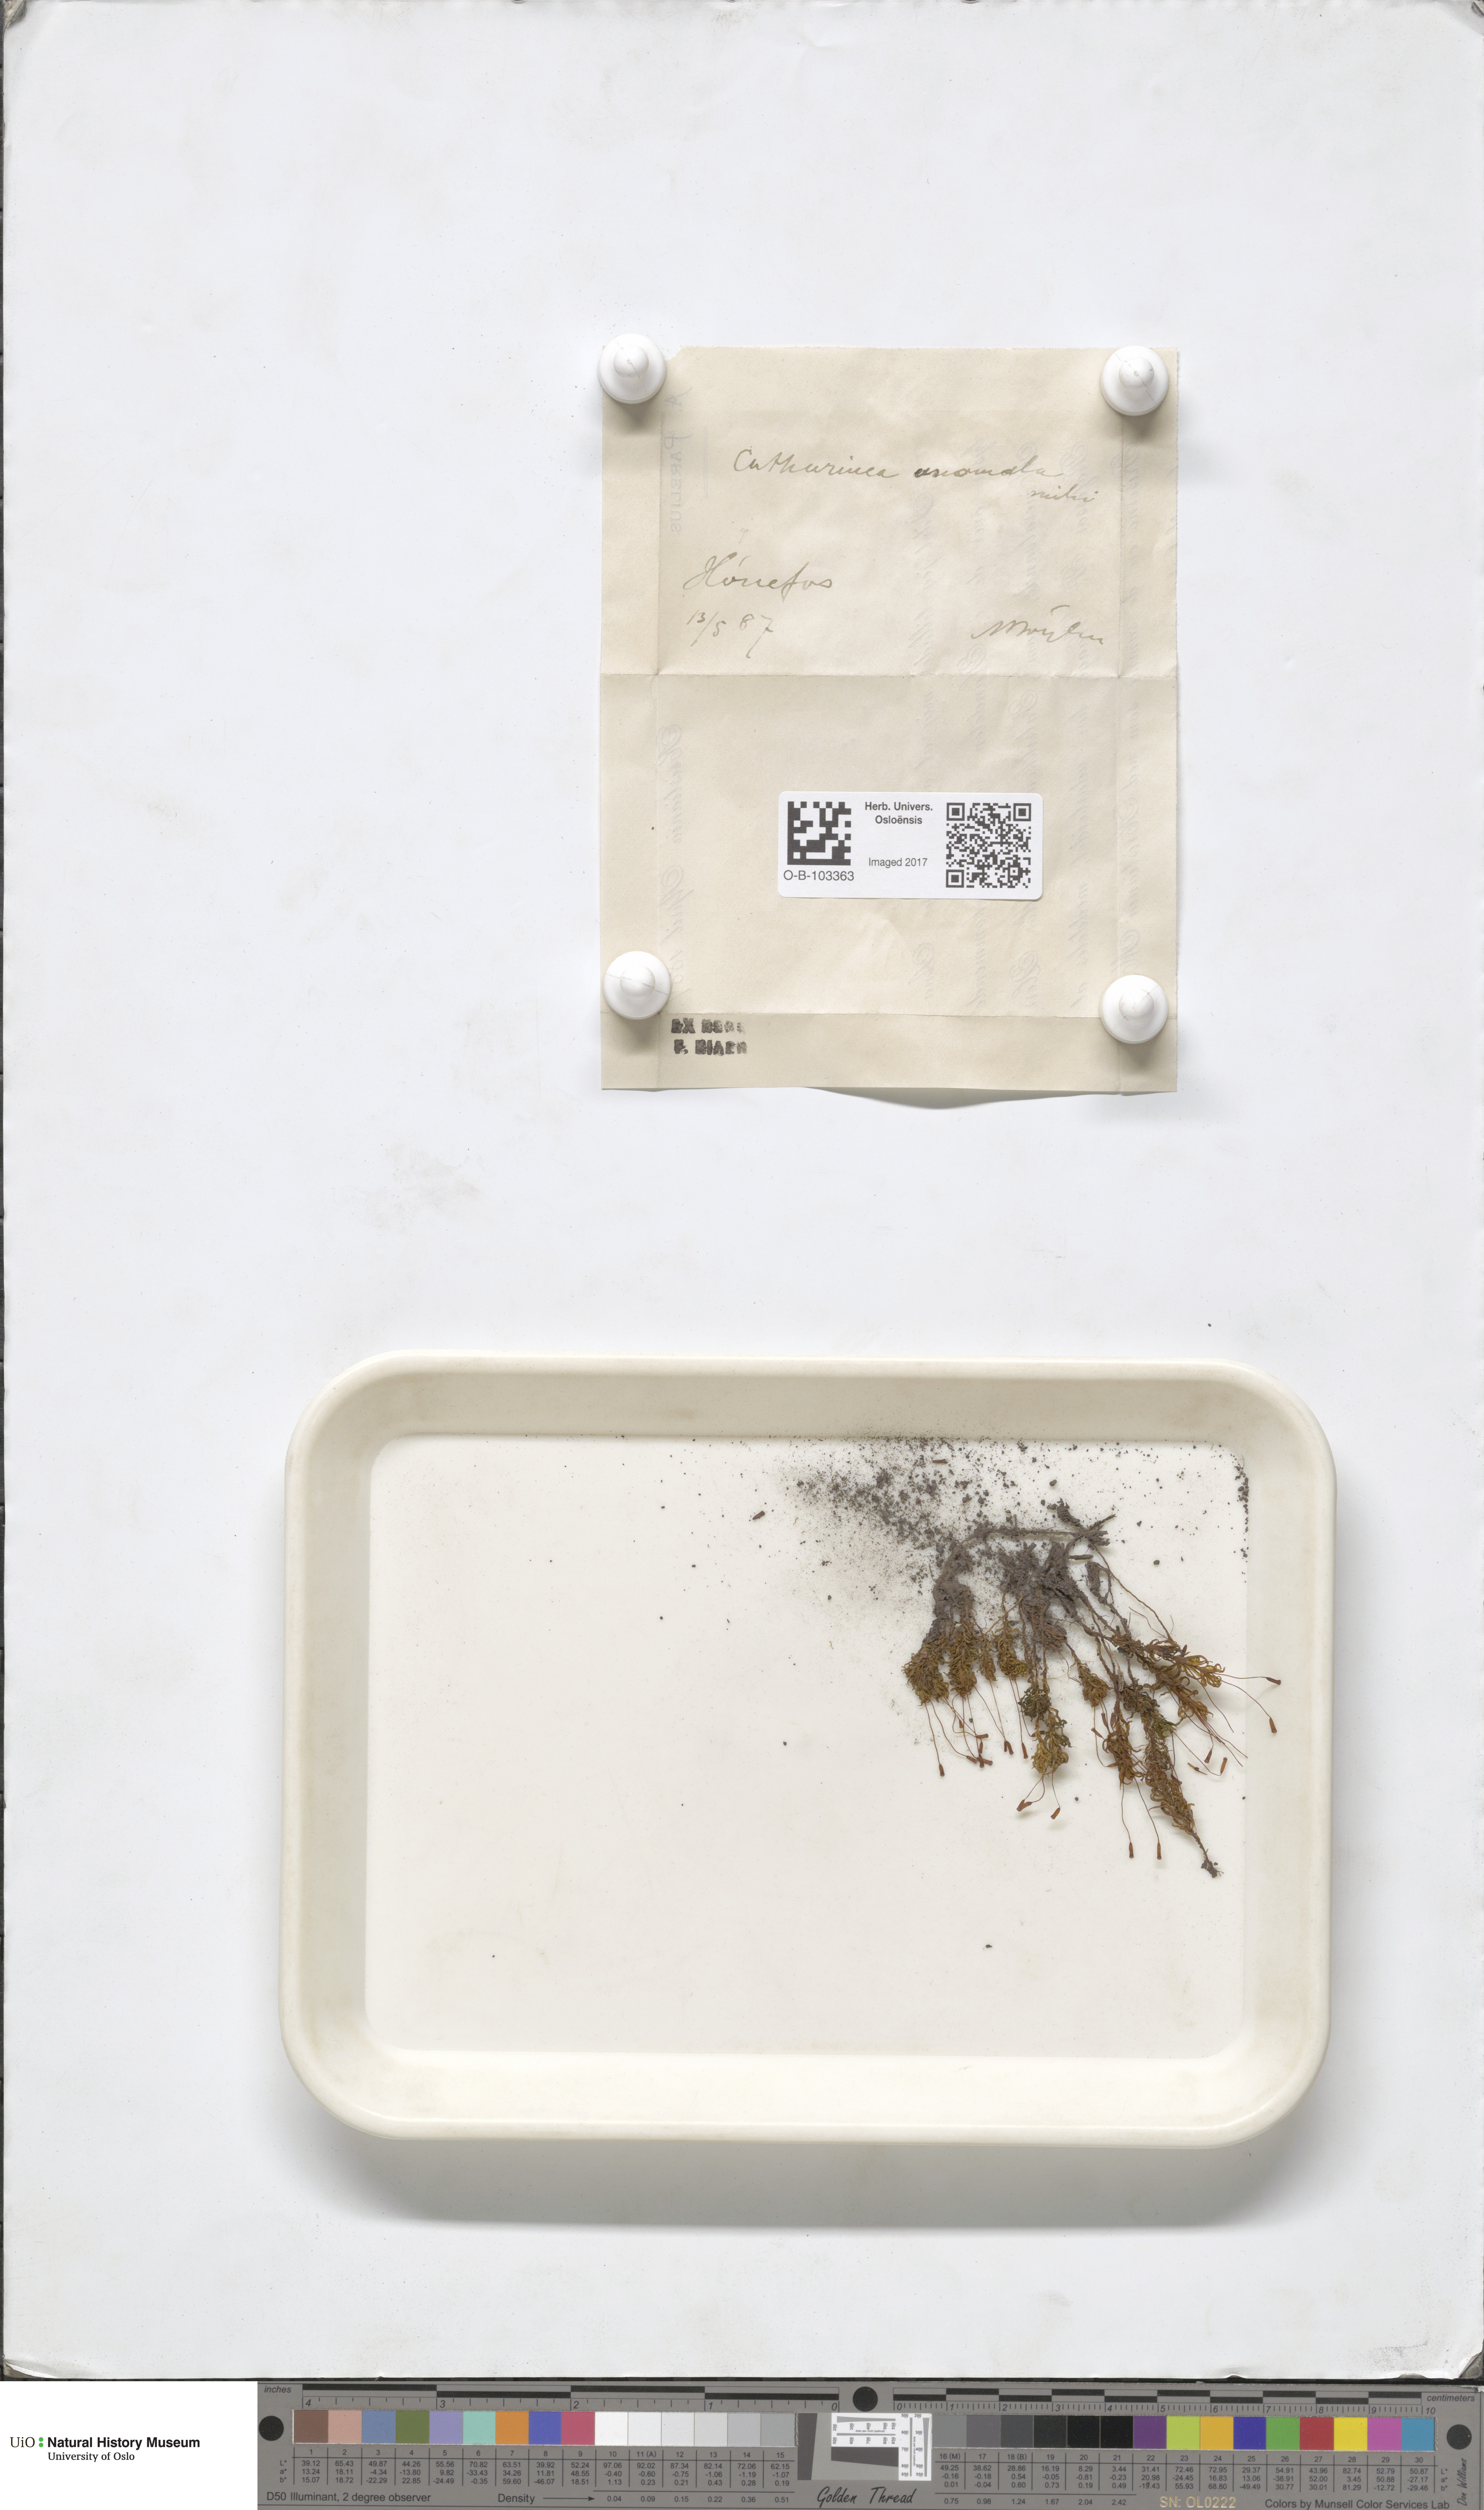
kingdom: Plantae
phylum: Bryophyta
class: Polytrichopsida
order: Polytrichales
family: Polytrichaceae
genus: Atrichum
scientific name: Atrichum undulatum
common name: Common smoothcap
